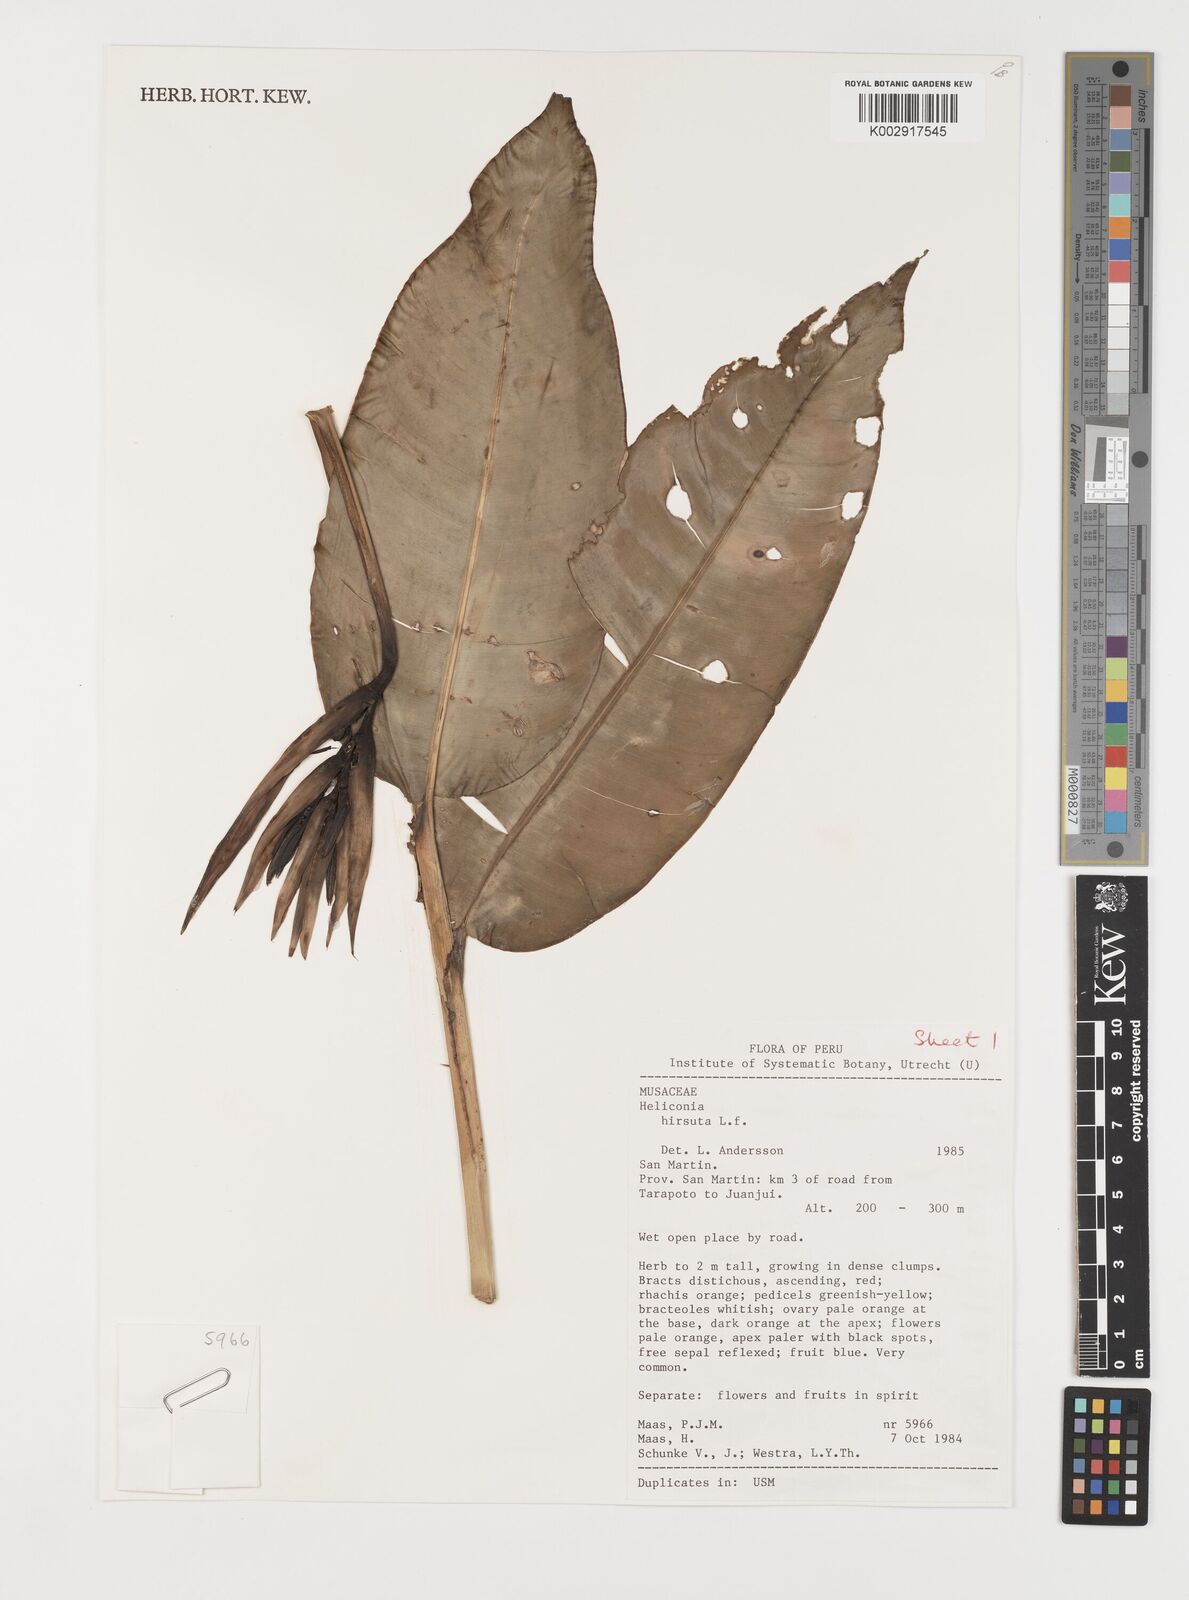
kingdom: Plantae
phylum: Tracheophyta
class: Liliopsida
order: Zingiberales
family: Heliconiaceae
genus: Heliconia
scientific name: Heliconia hirsuta
